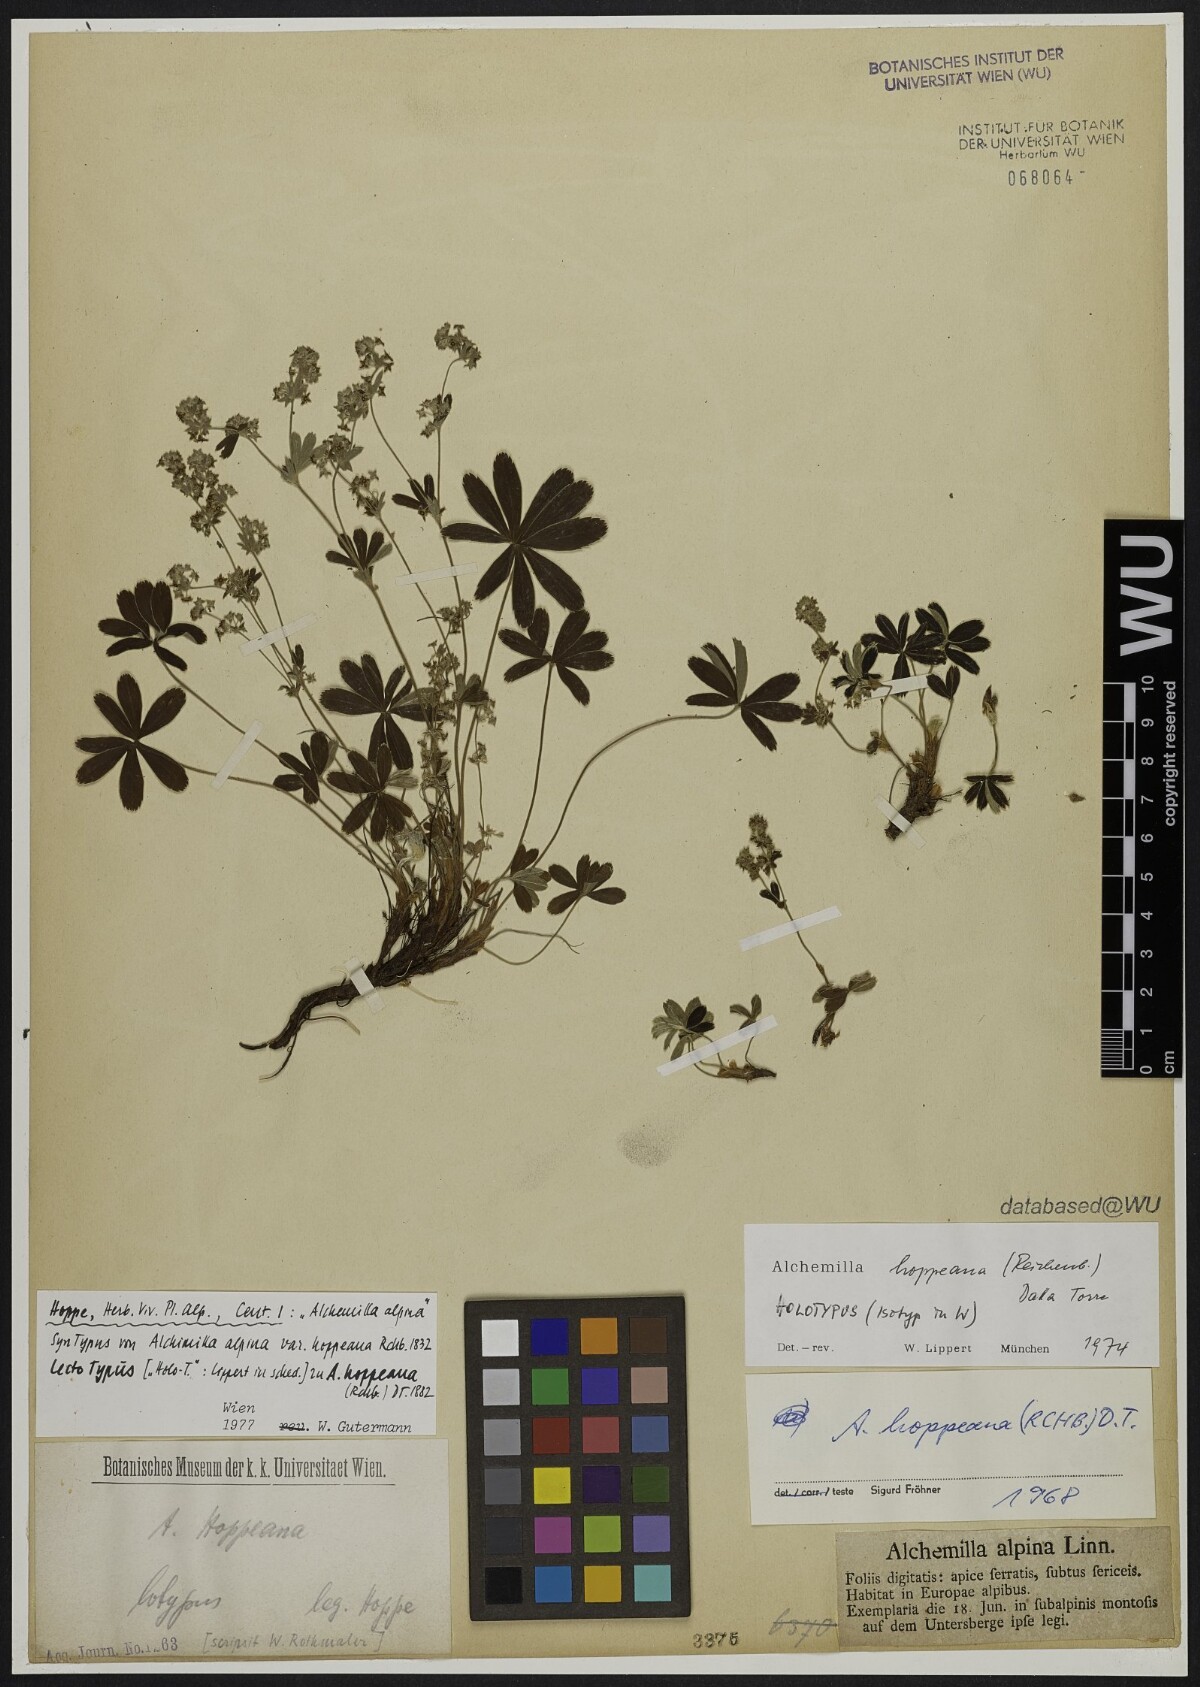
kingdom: Plantae
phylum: Tracheophyta
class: Magnoliopsida
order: Rosales
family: Rosaceae
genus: Alchemilla
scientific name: Alchemilla hoppeana
